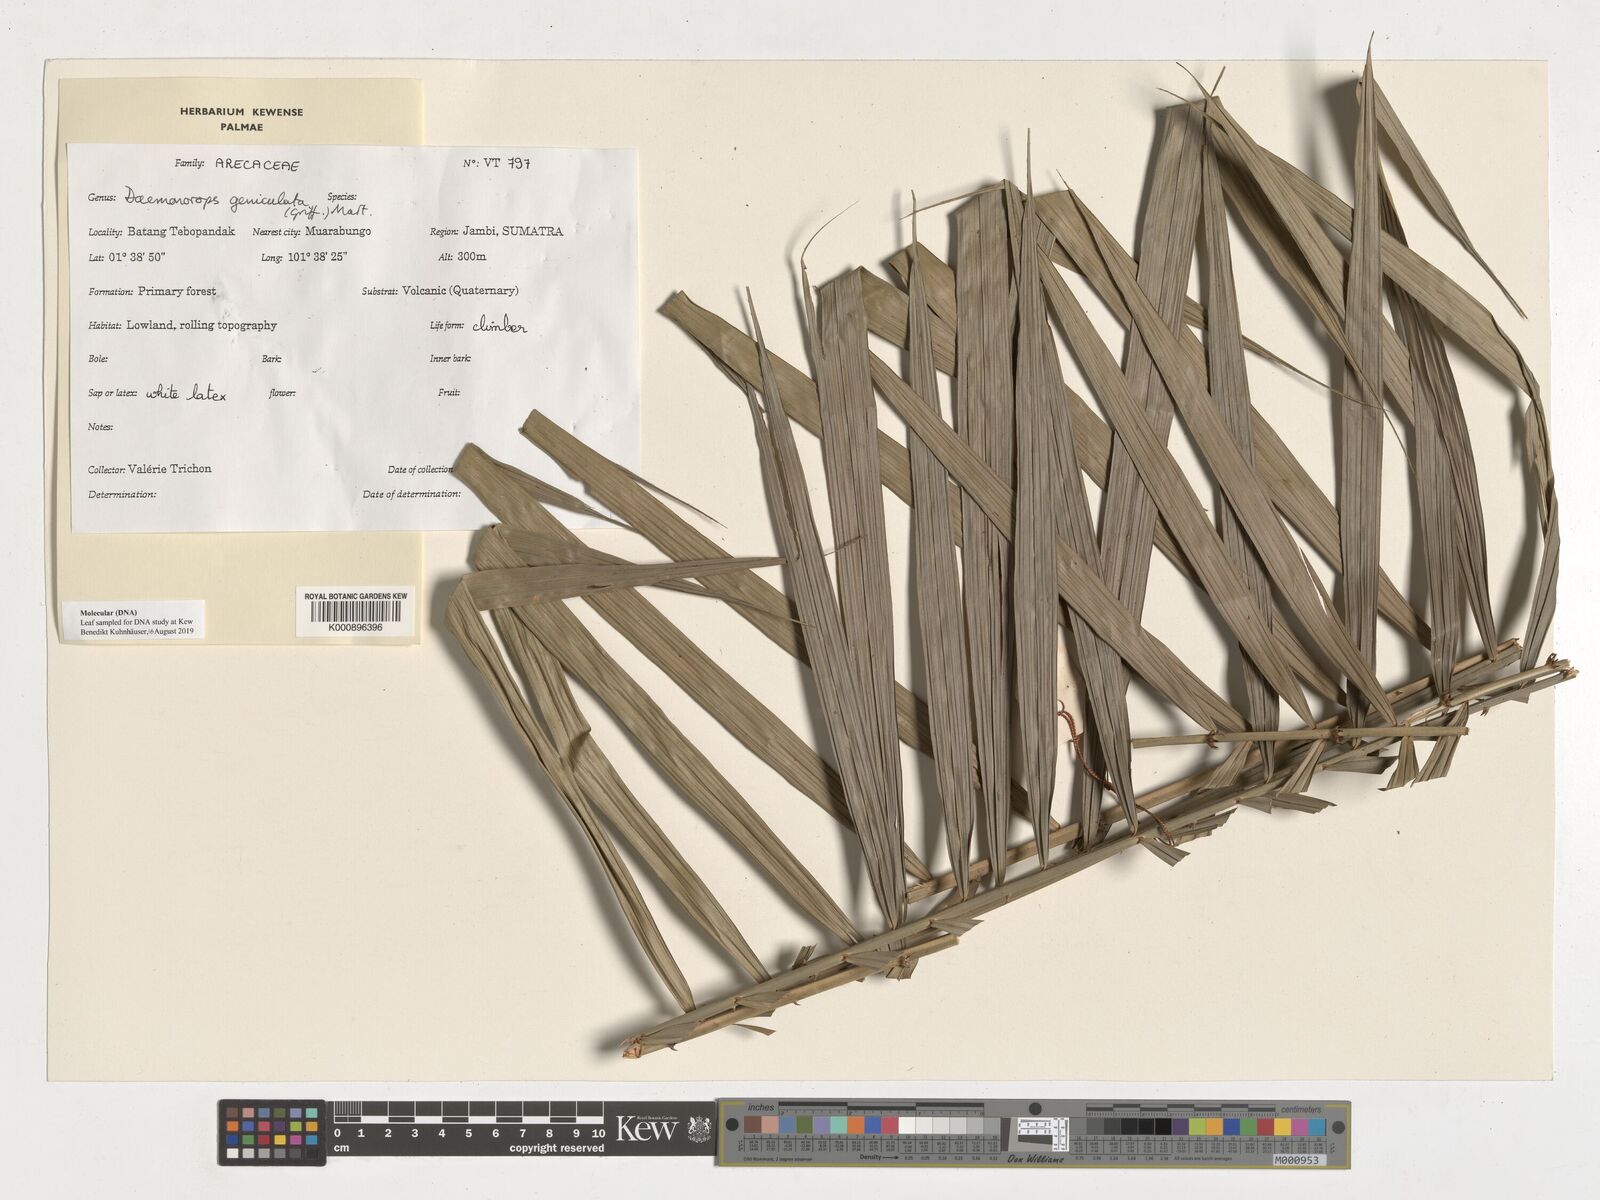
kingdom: Plantae
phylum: Tracheophyta
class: Liliopsida
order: Arecales
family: Arecaceae
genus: Calamus
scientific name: Calamus geniculatus
